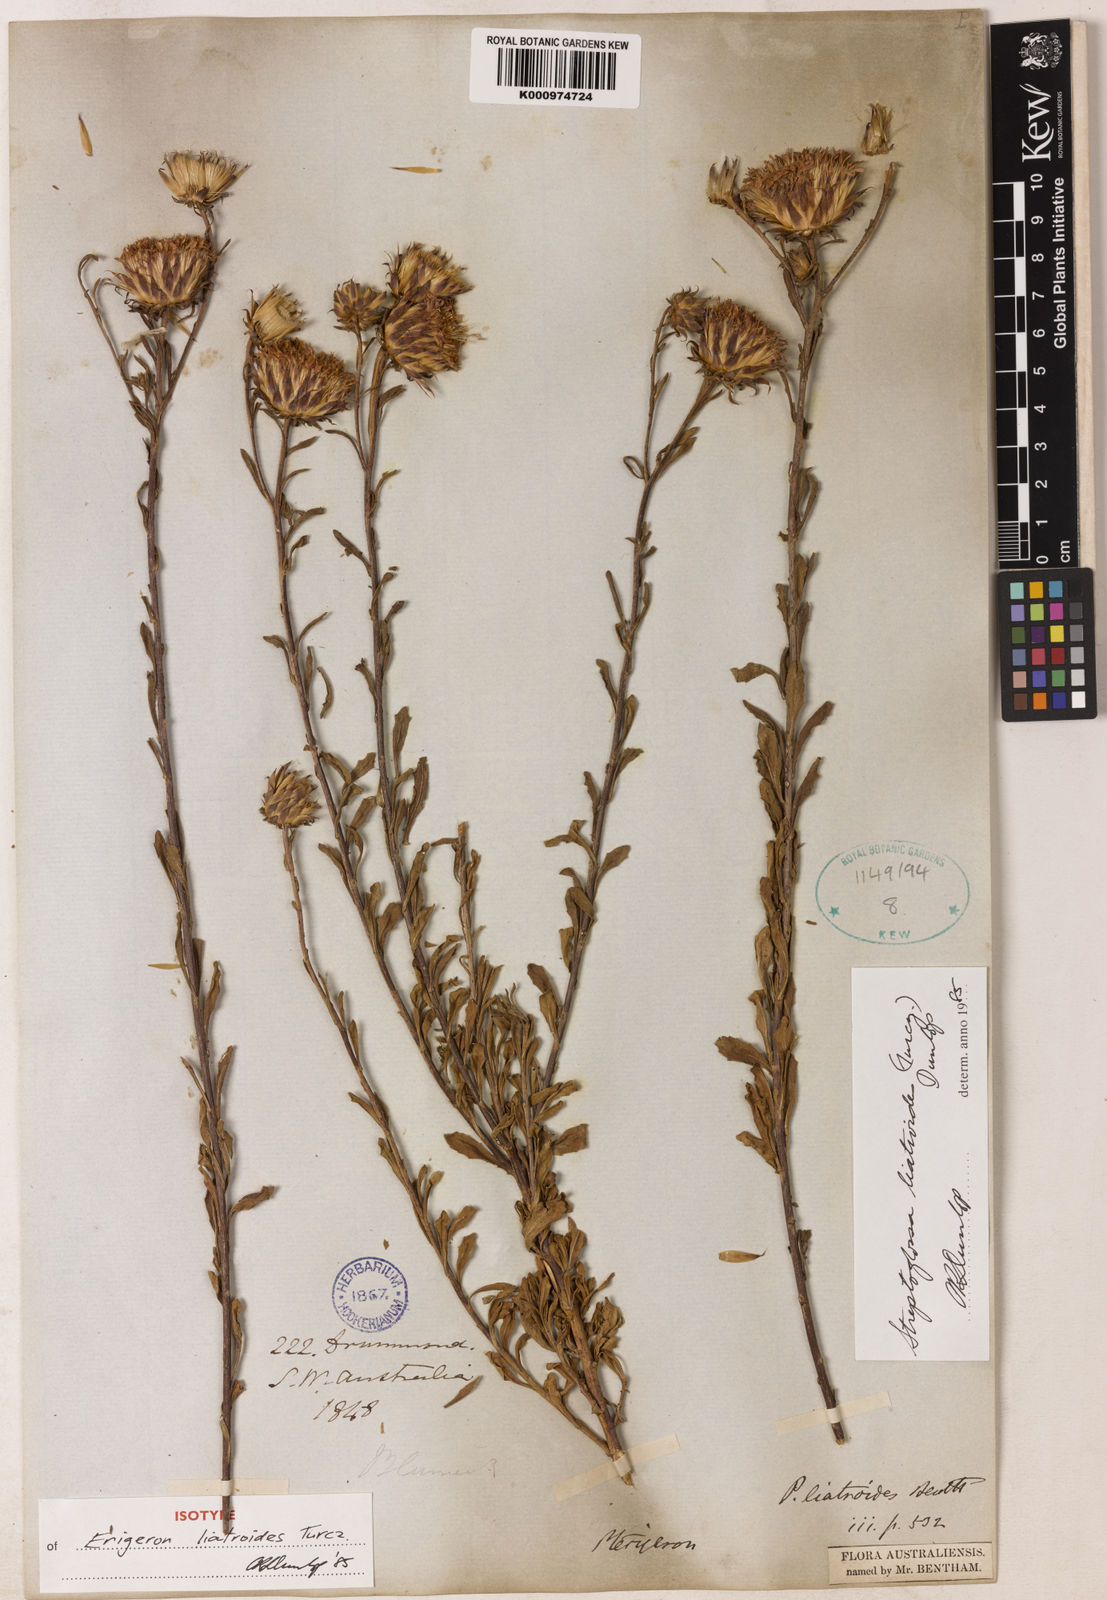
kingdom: Plantae
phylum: Tracheophyta
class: Magnoliopsida
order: Asterales
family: Asteraceae
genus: Streptoglossa
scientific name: Streptoglossa liatroides
